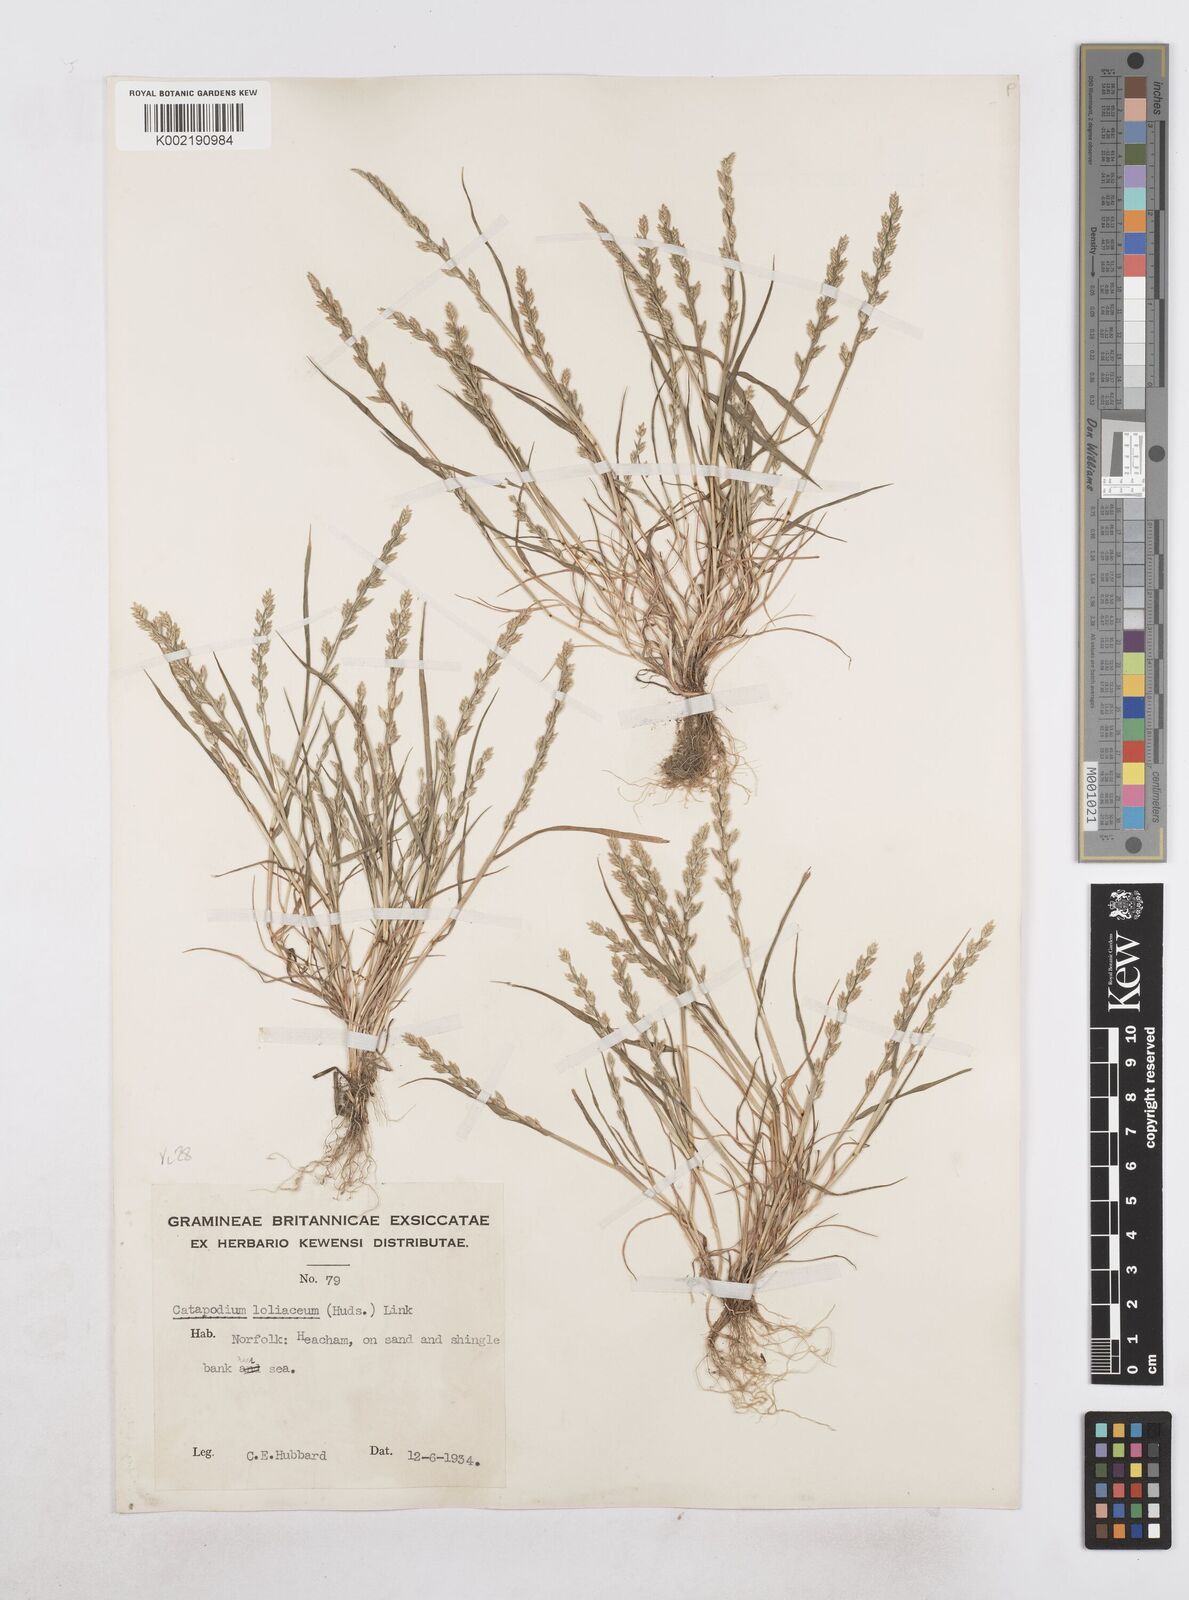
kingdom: Plantae
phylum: Tracheophyta
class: Liliopsida
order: Poales
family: Poaceae
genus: Catapodium
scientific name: Catapodium marinum
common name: Sea fern-grass
